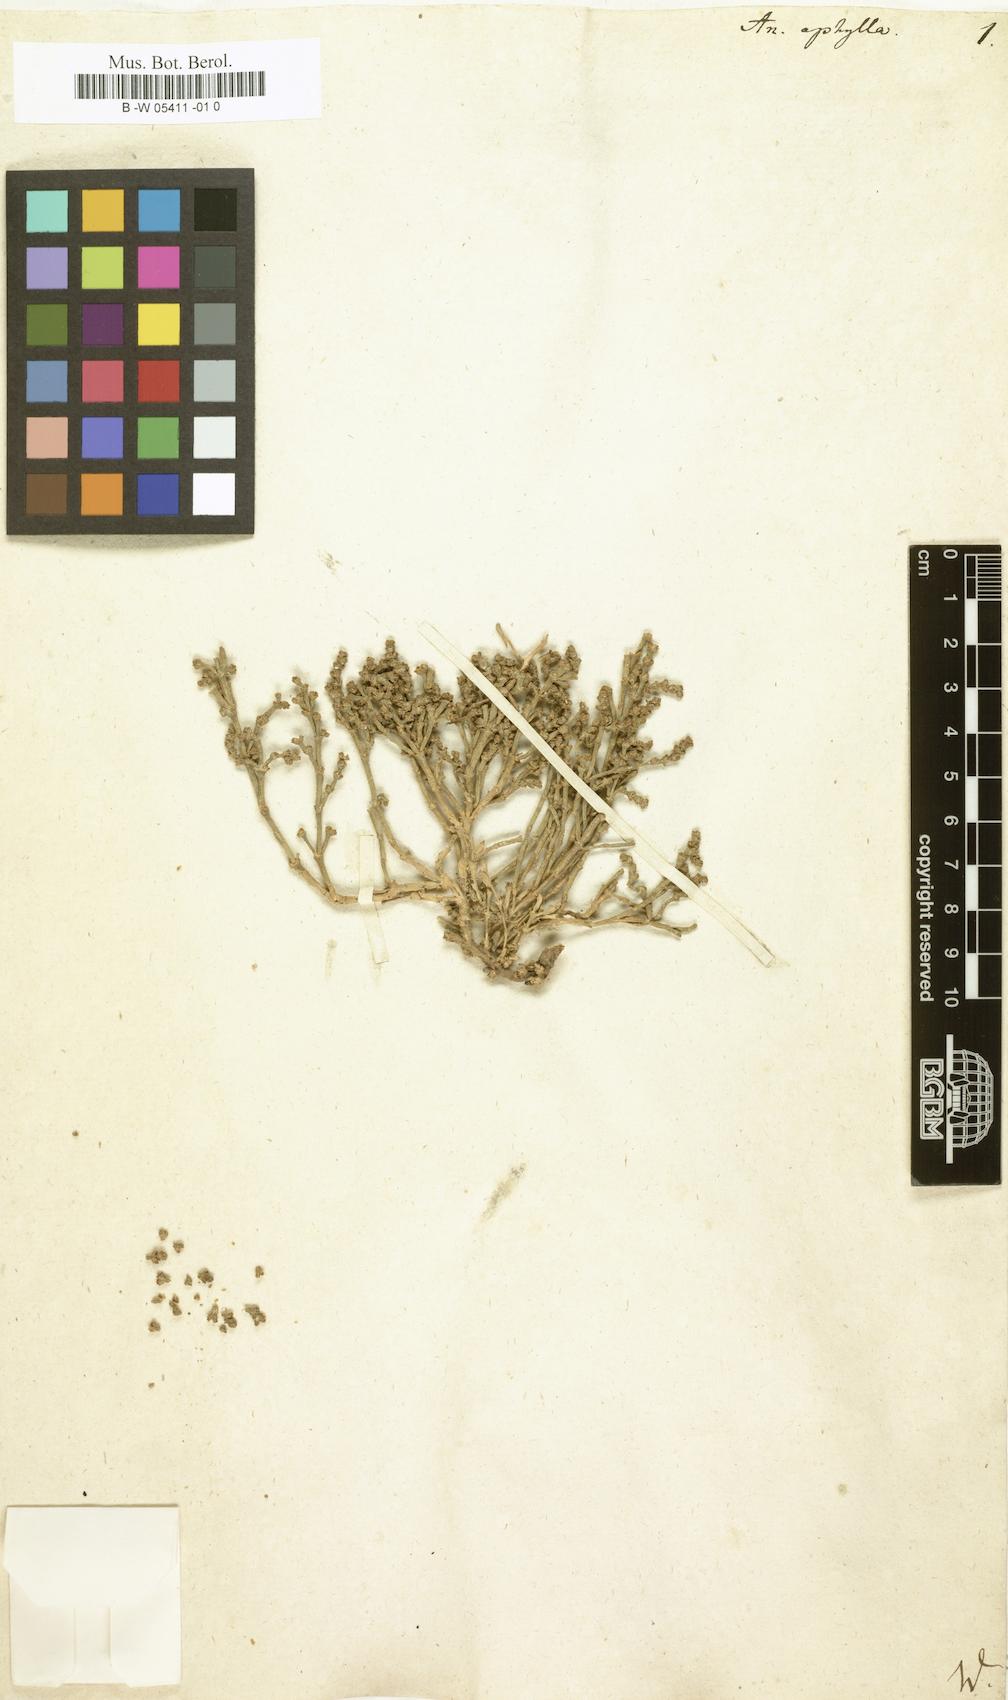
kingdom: Plantae
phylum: Tracheophyta
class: Magnoliopsida
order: Caryophyllales
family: Amaranthaceae
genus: Anabasis
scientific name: Anabasis aphylla
